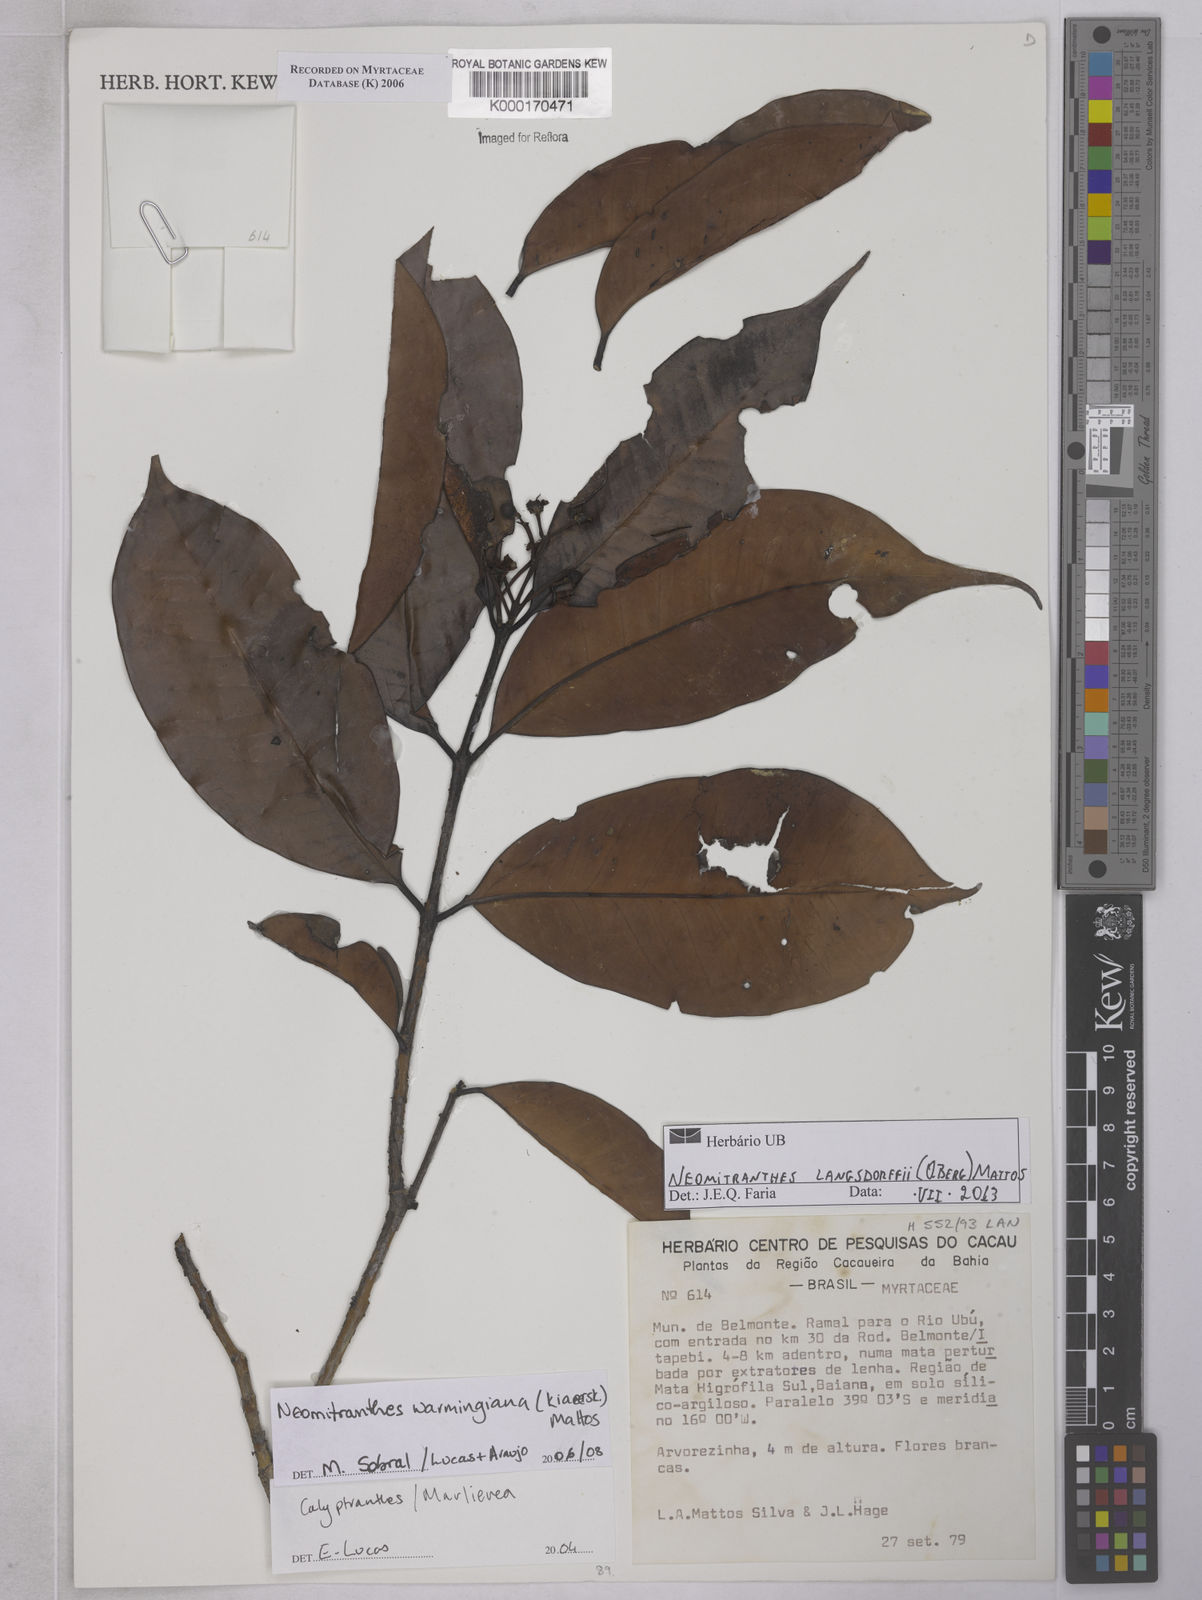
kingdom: Plantae
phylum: Tracheophyta
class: Magnoliopsida
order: Myrtales
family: Myrtaceae
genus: Calycorectes
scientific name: Calycorectes teixeireanus
